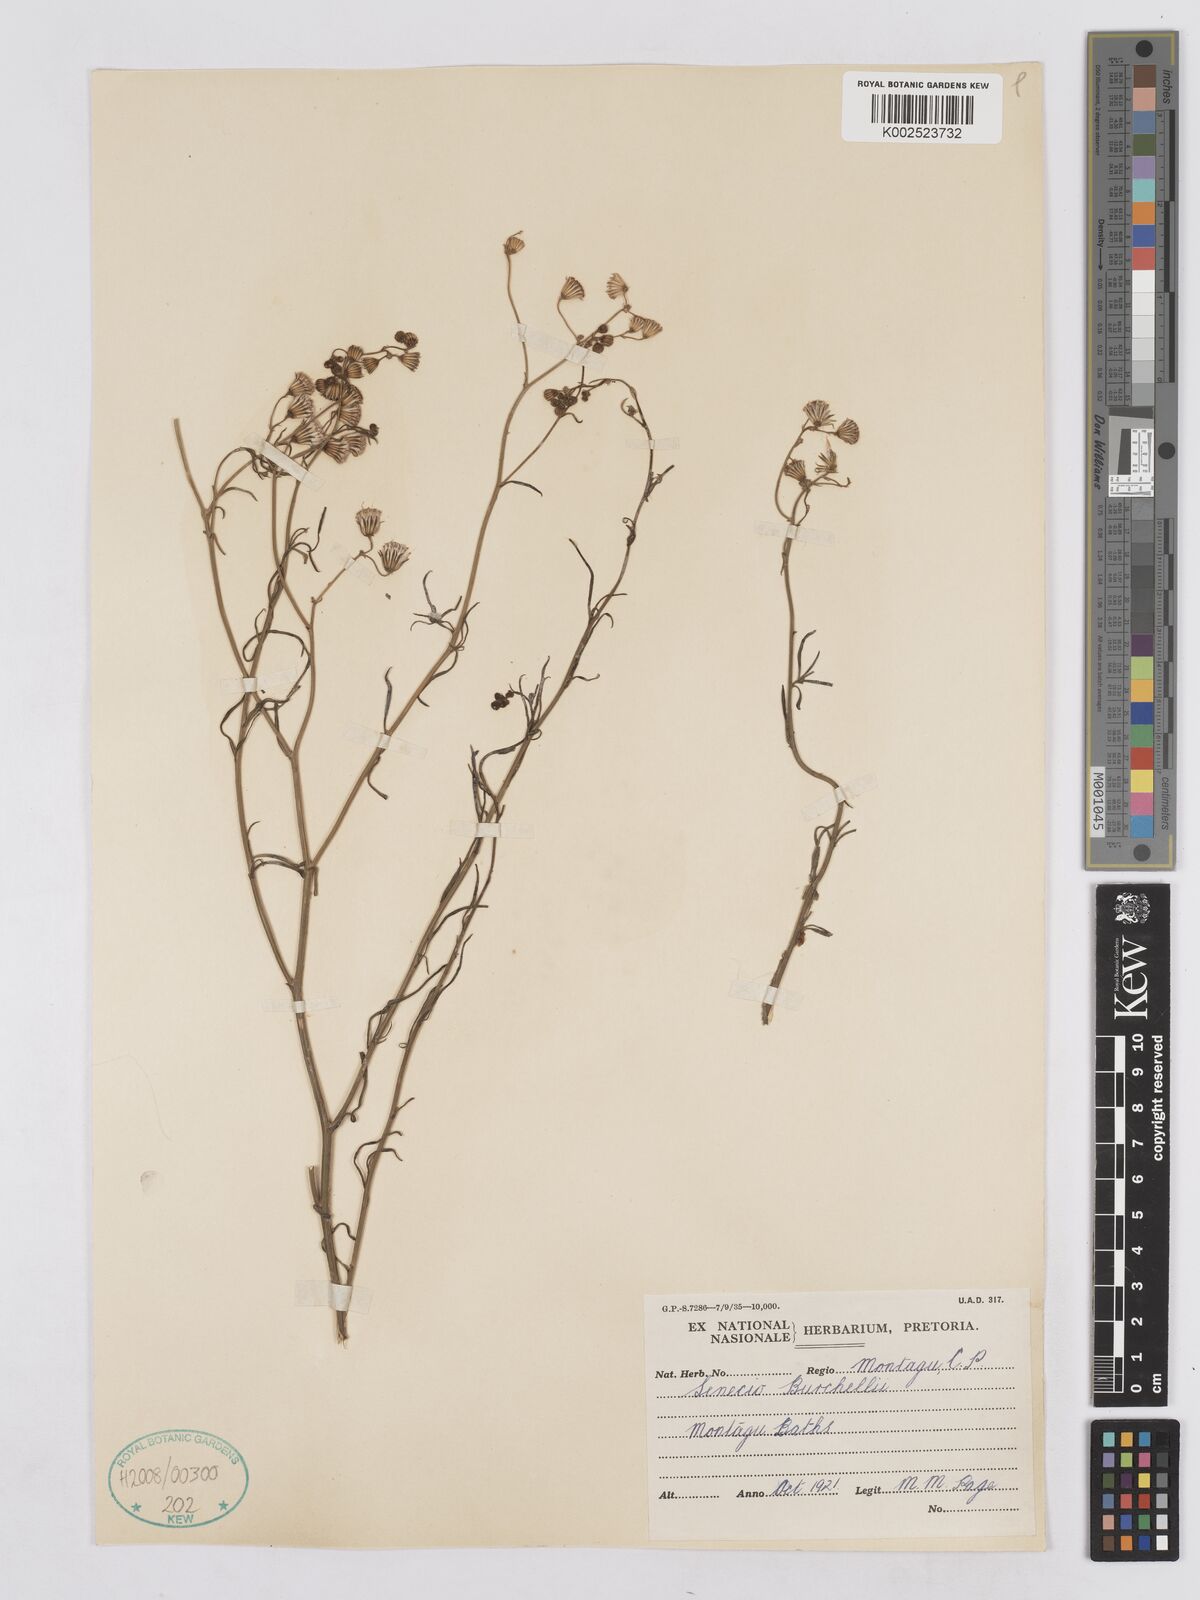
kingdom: Plantae
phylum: Tracheophyta
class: Magnoliopsida
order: Asterales
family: Asteraceae
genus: Senecio
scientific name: Senecio burchellii
